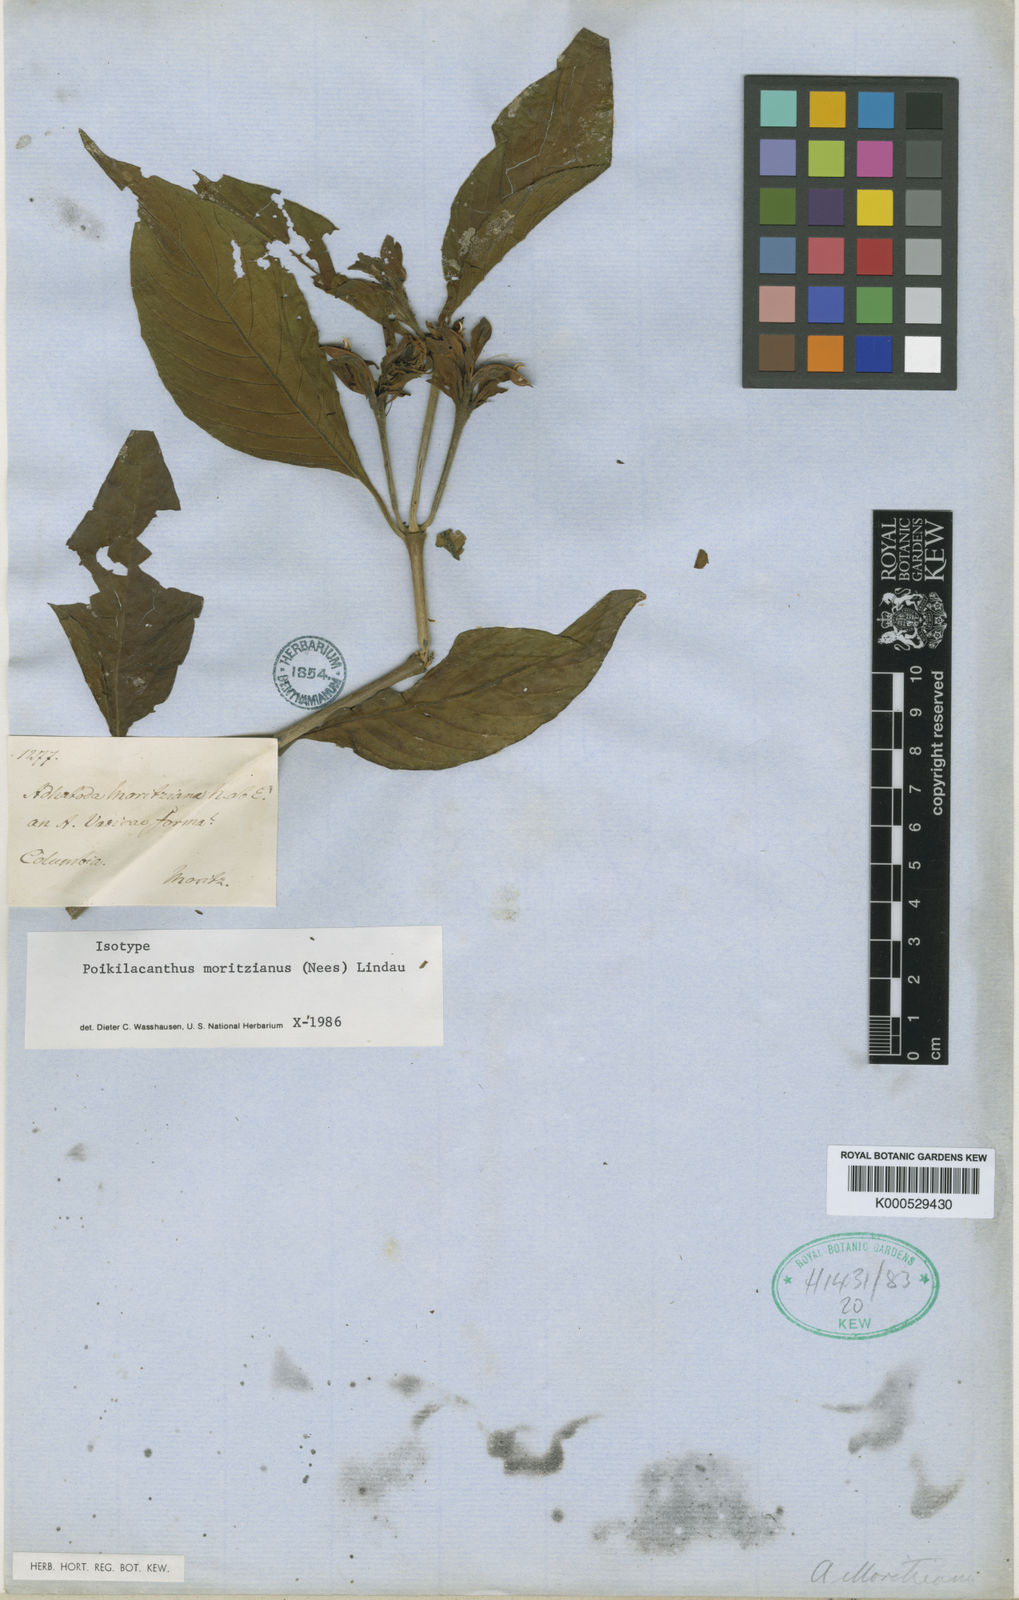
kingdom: Plantae
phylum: Tracheophyta
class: Magnoliopsida
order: Lamiales
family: Acanthaceae
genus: Poikilacanthus
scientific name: Poikilacanthus moritzianus
